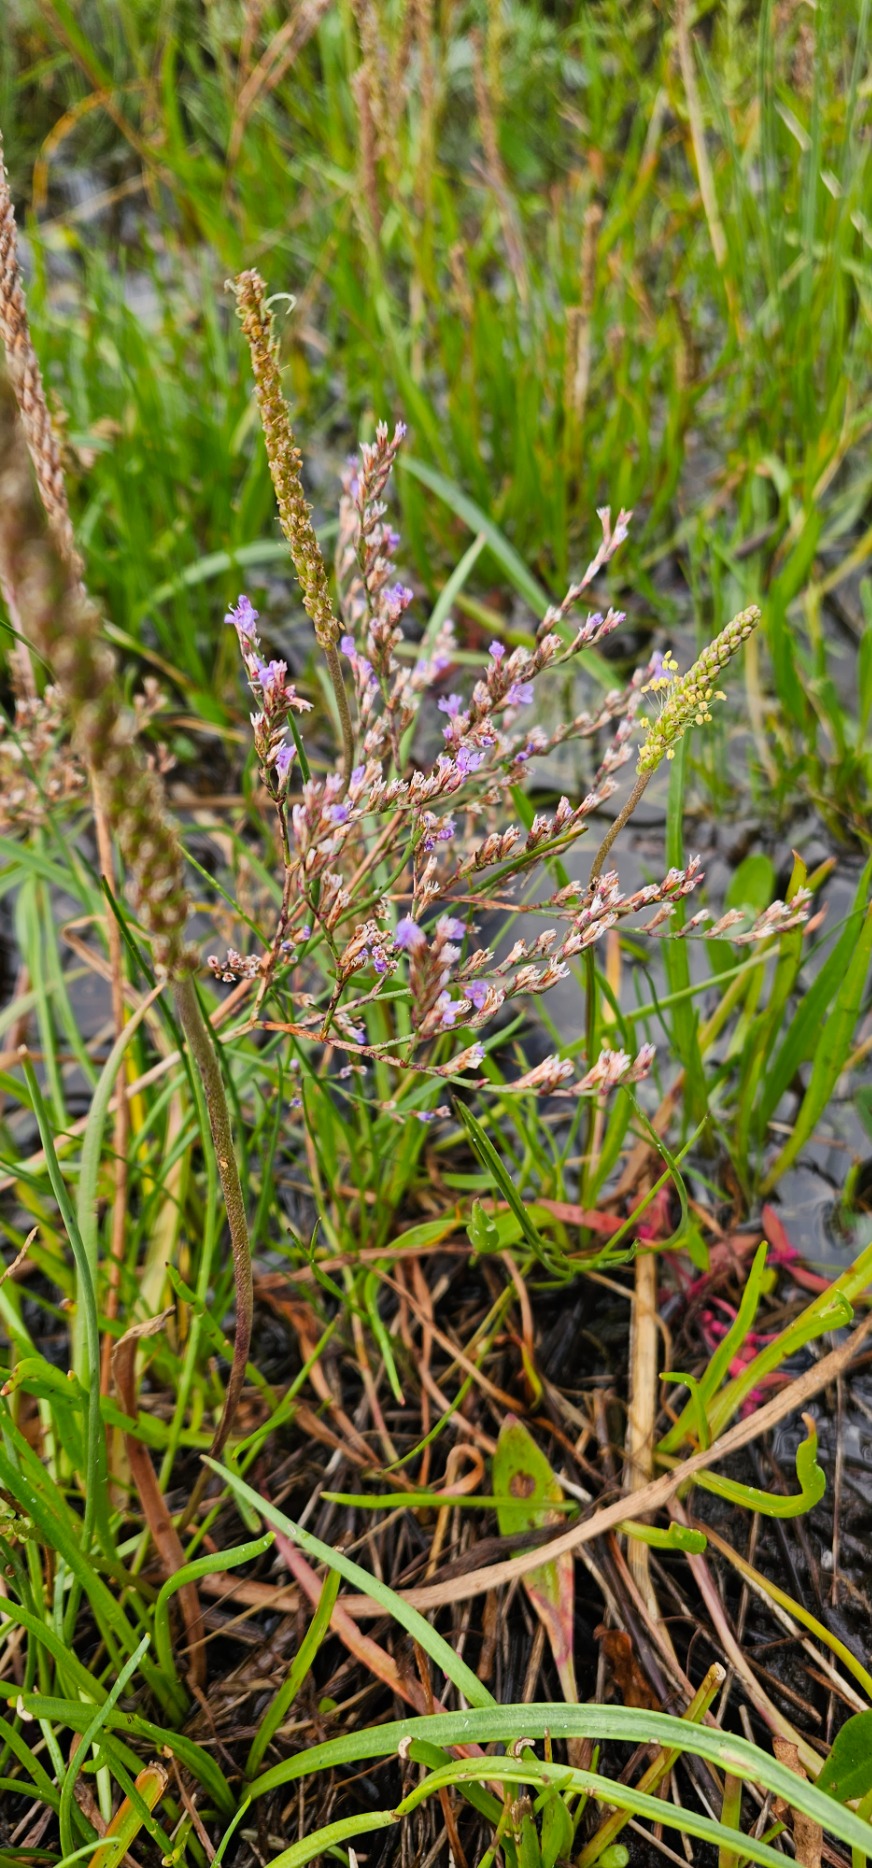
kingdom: Plantae
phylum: Tracheophyta
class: Magnoliopsida
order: Caryophyllales
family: Plumbaginaceae
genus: Limonium
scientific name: Limonium humile
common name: Lav hindebæger
